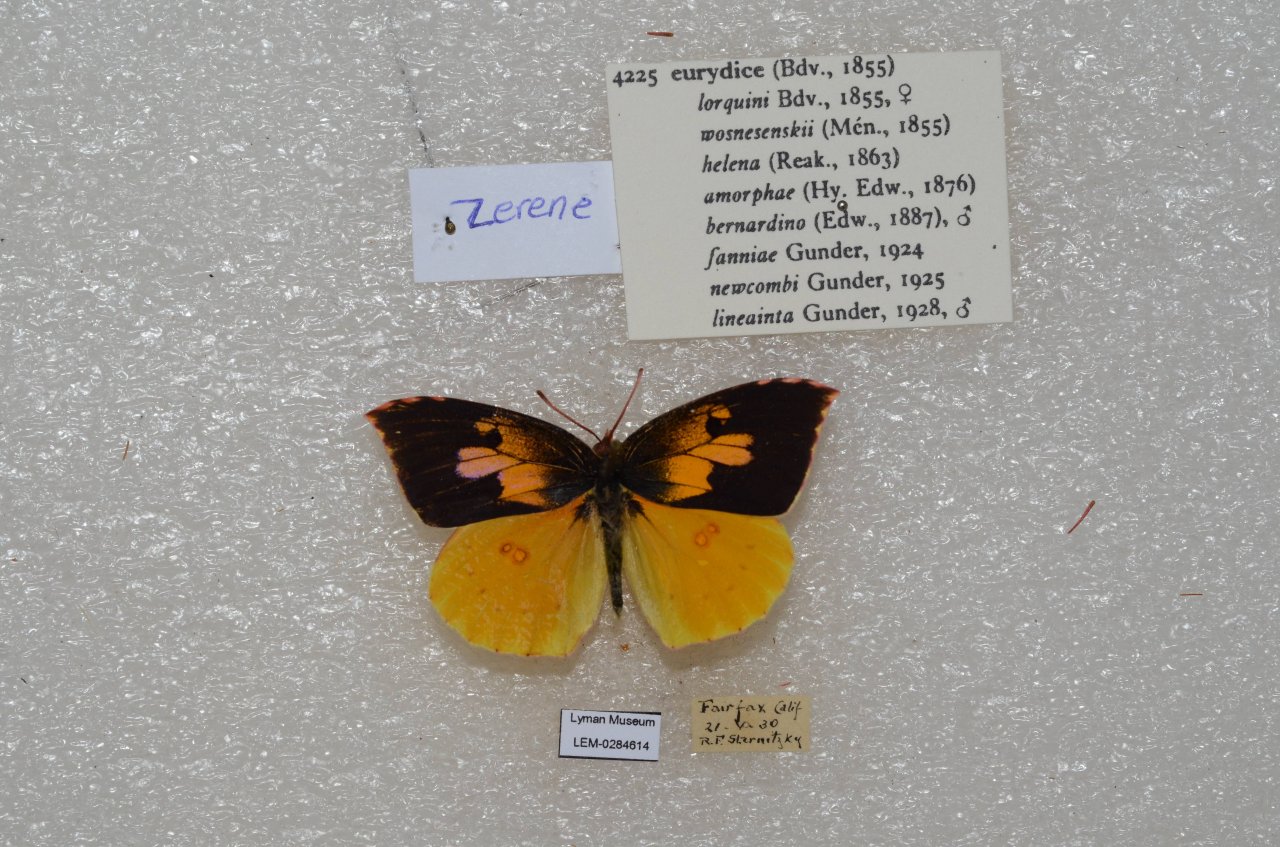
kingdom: Animalia
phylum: Arthropoda
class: Insecta
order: Lepidoptera
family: Pieridae
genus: Zerene
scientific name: Zerene eurydice
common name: California Dogface
